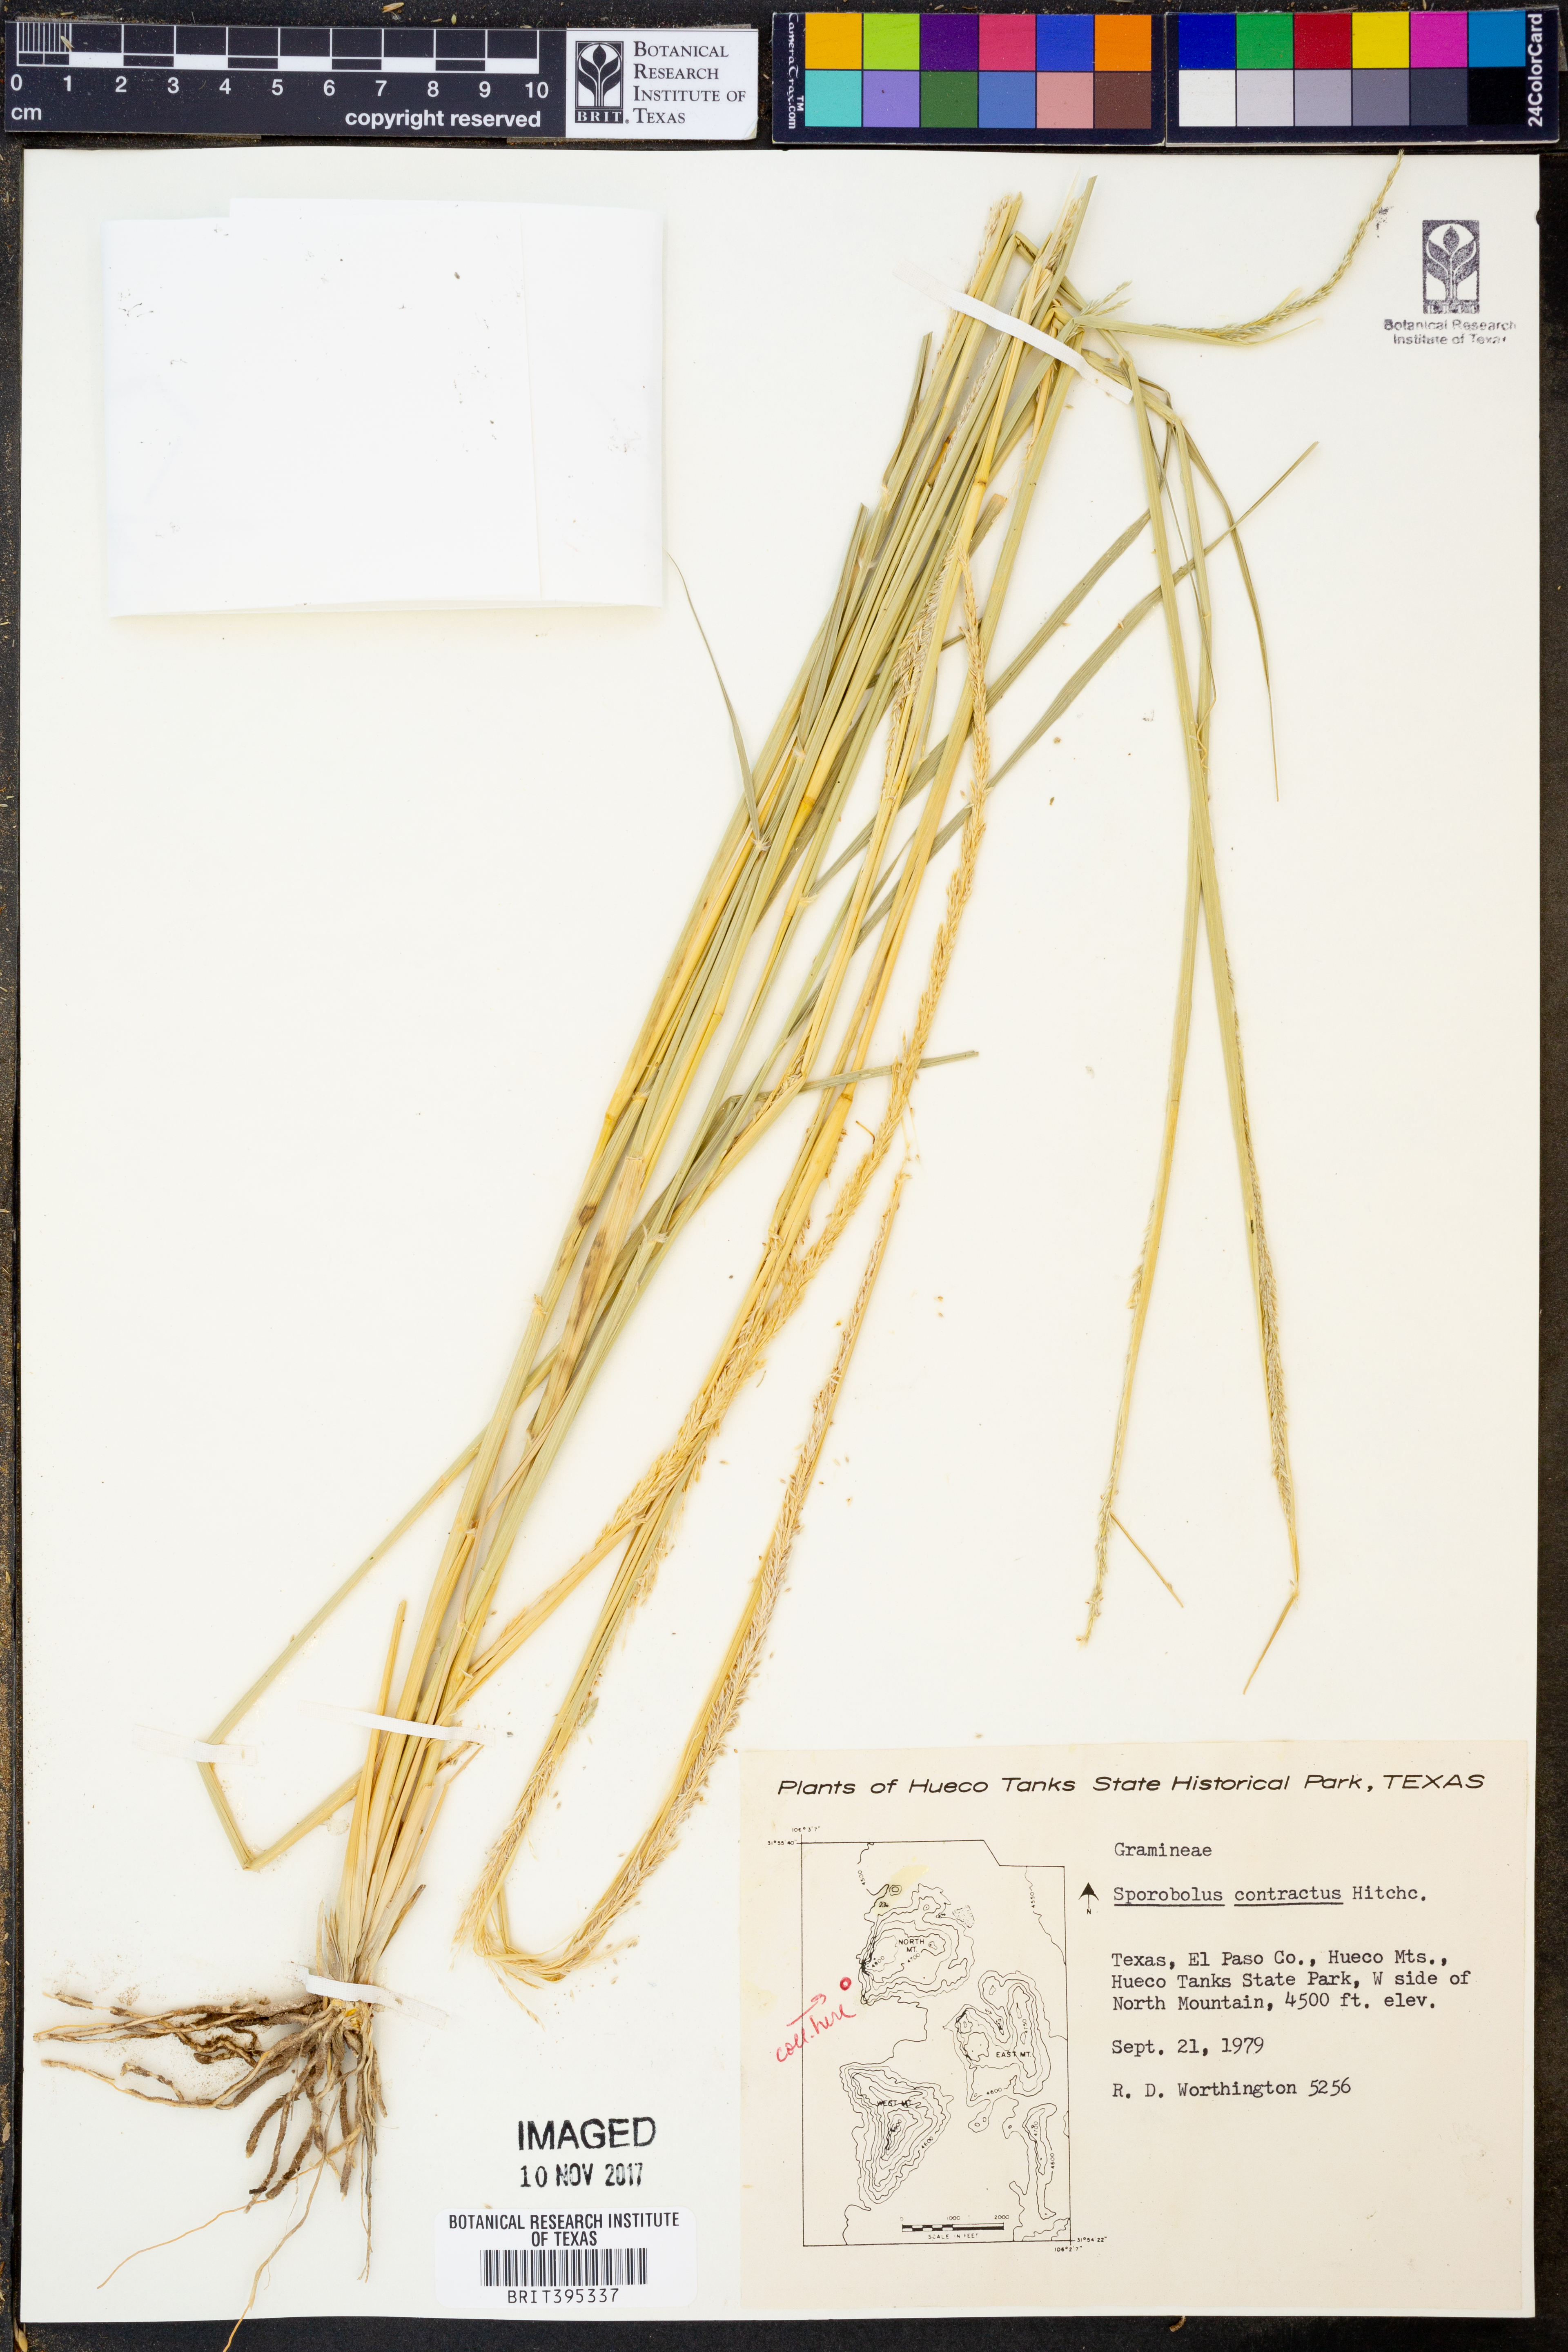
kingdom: Plantae
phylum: Tracheophyta
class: Liliopsida
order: Poales
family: Poaceae
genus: Sporobolus
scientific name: Sporobolus contractus
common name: Spike dropseed
